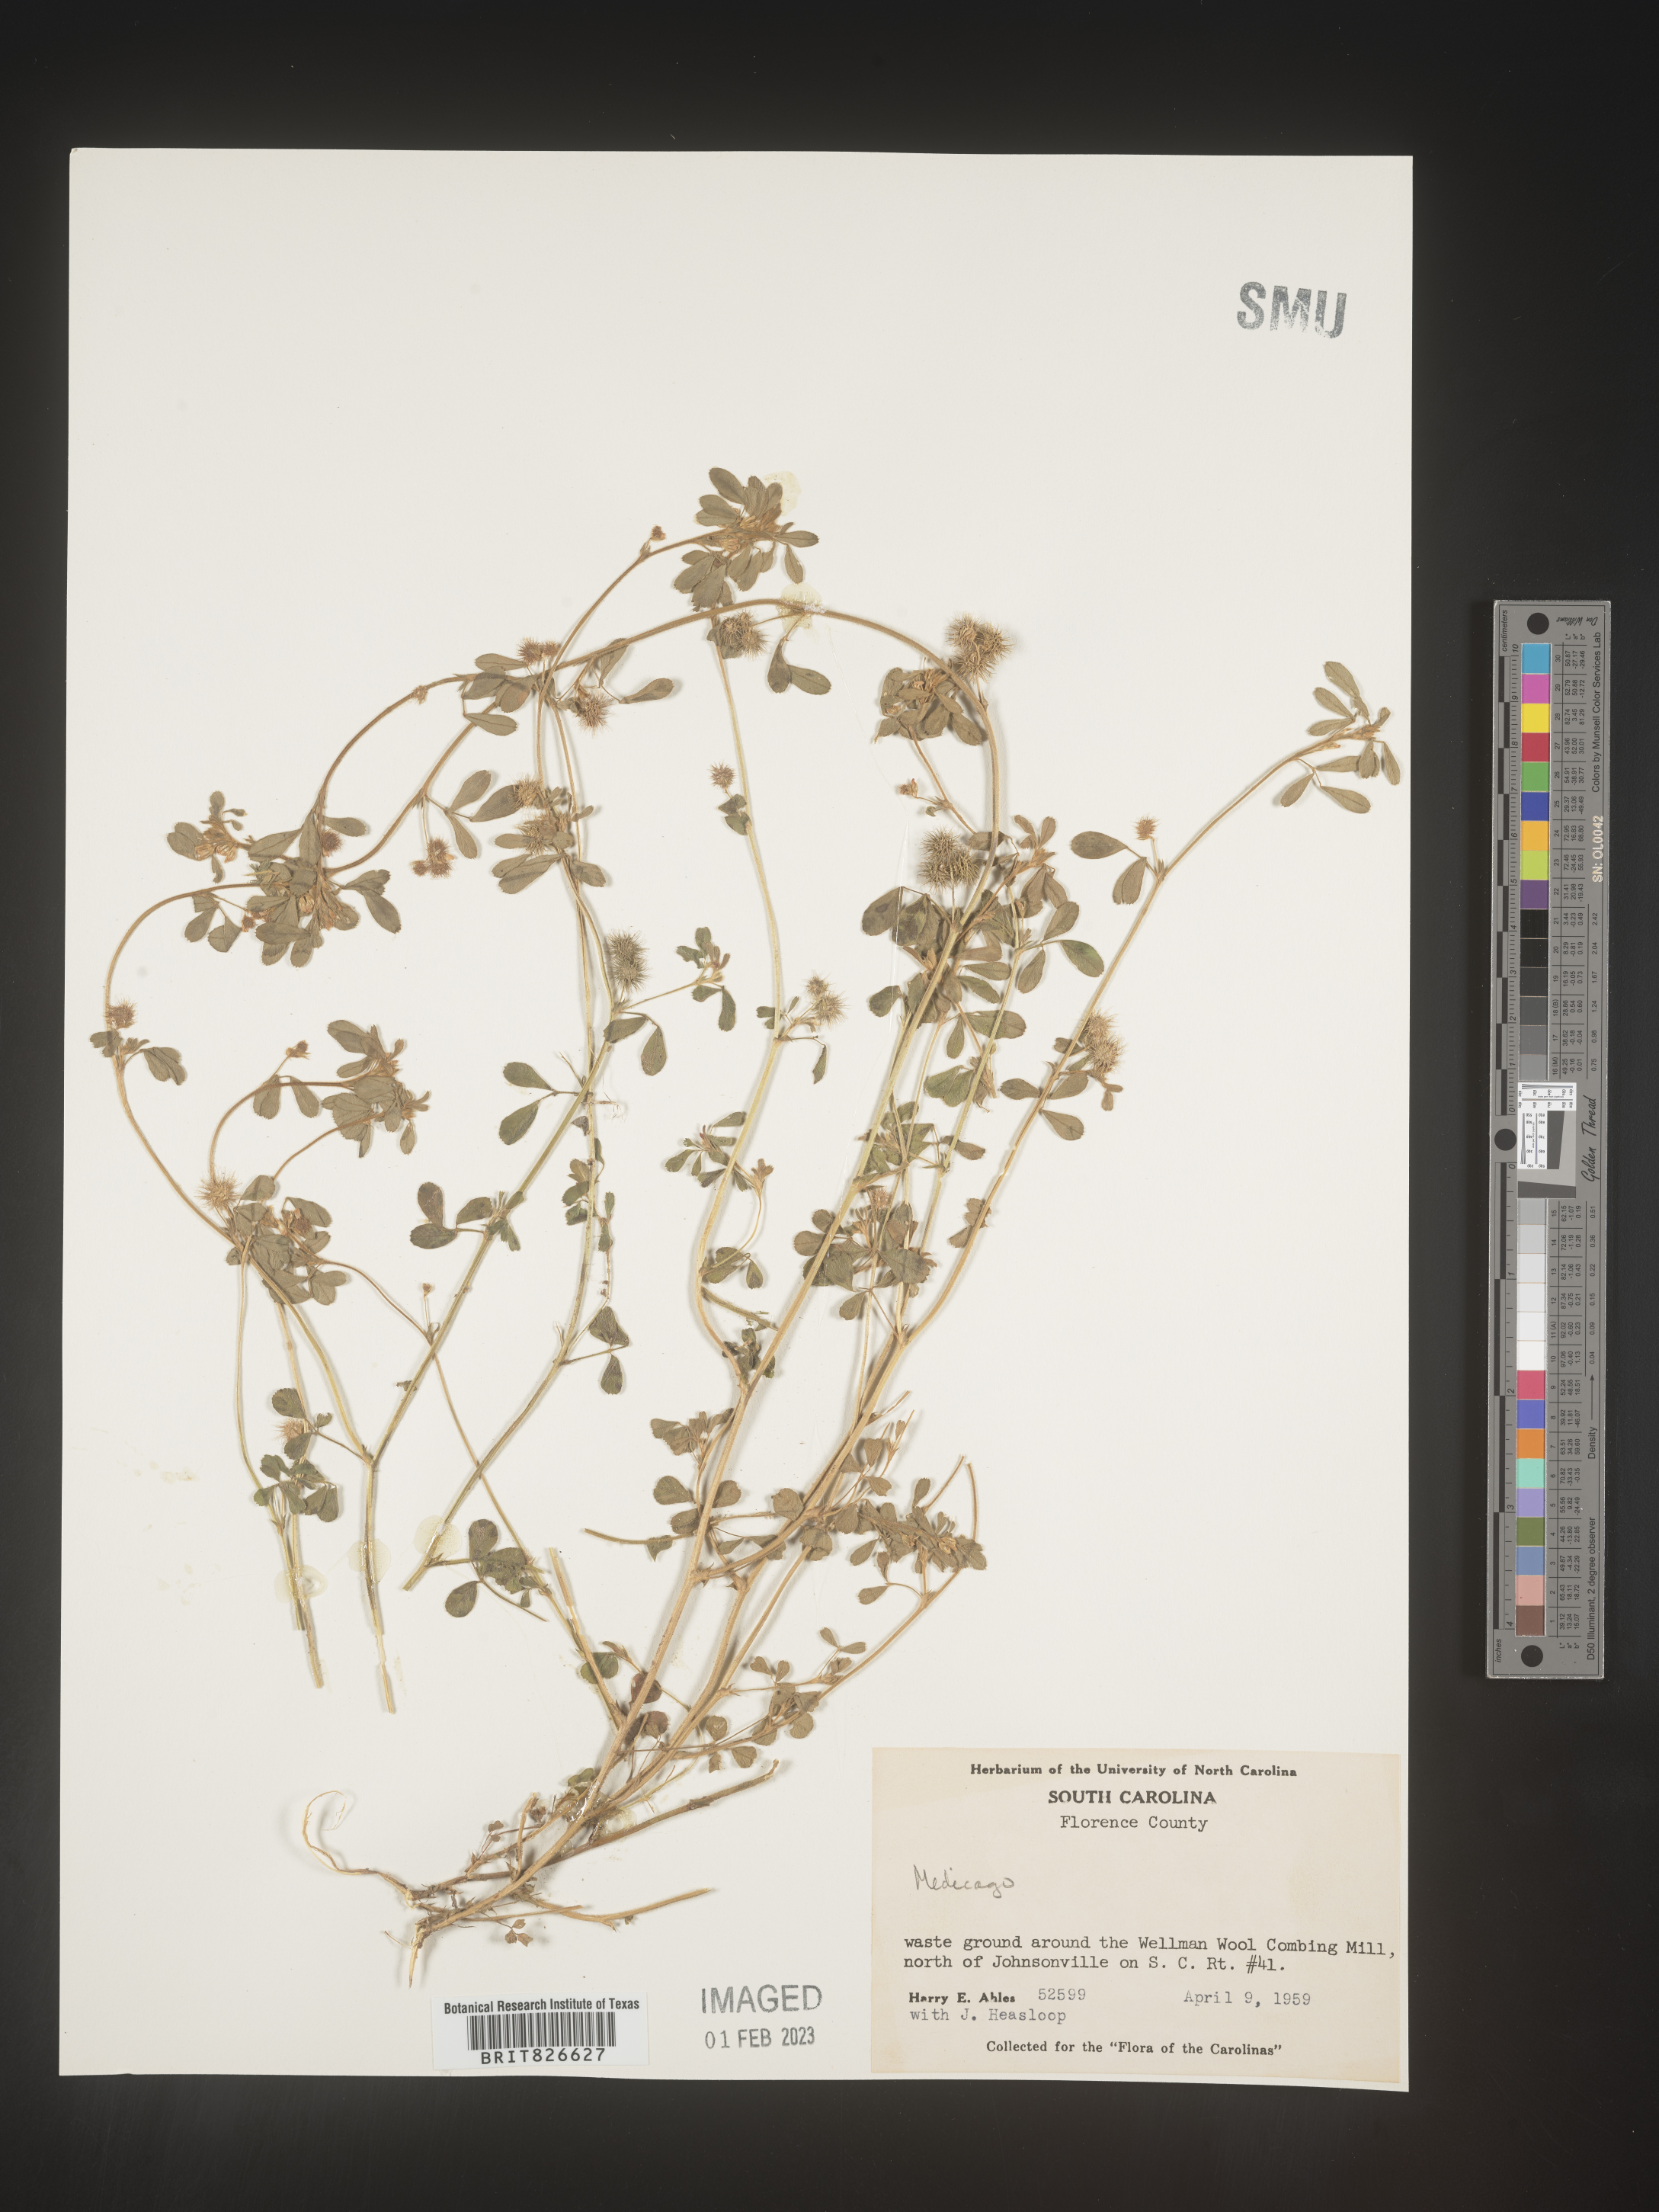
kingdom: Plantae
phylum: Tracheophyta
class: Magnoliopsida
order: Fabales
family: Fabaceae
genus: Medicago
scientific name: Medicago
